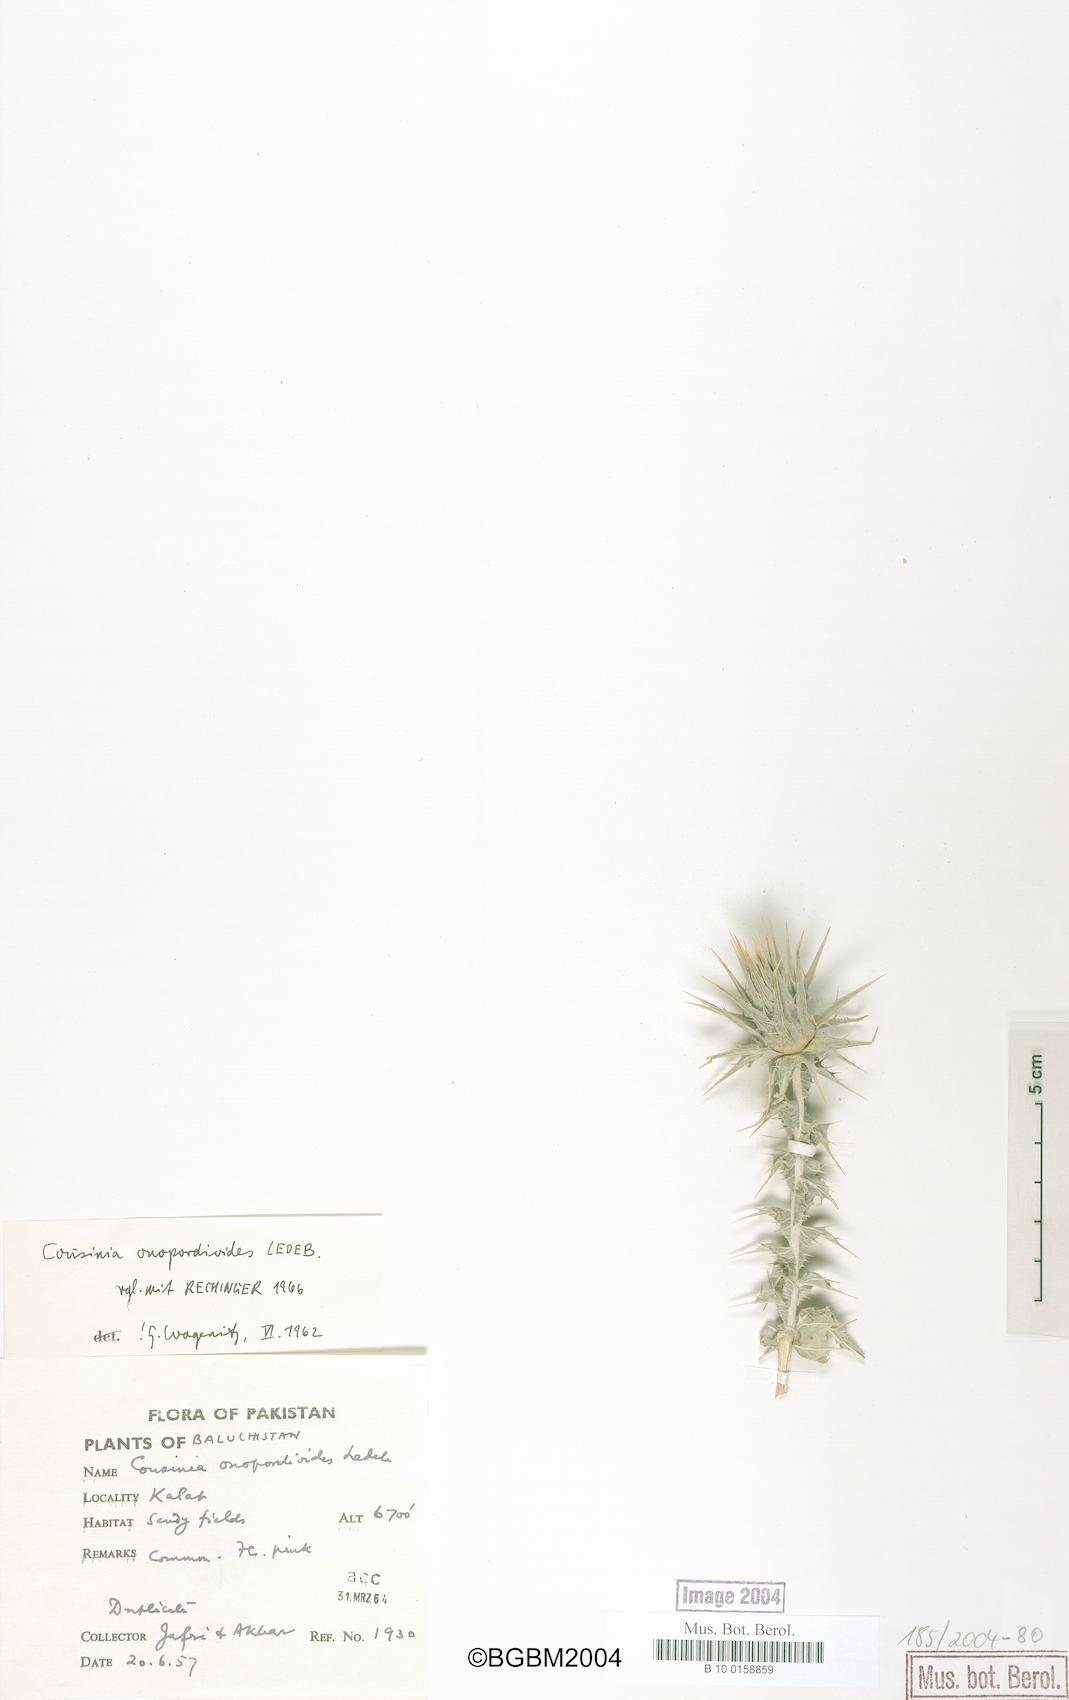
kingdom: Plantae
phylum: Tracheophyta
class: Magnoliopsida
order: Asterales
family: Asteraceae
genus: Cousinia
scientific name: Cousinia onopordioides
